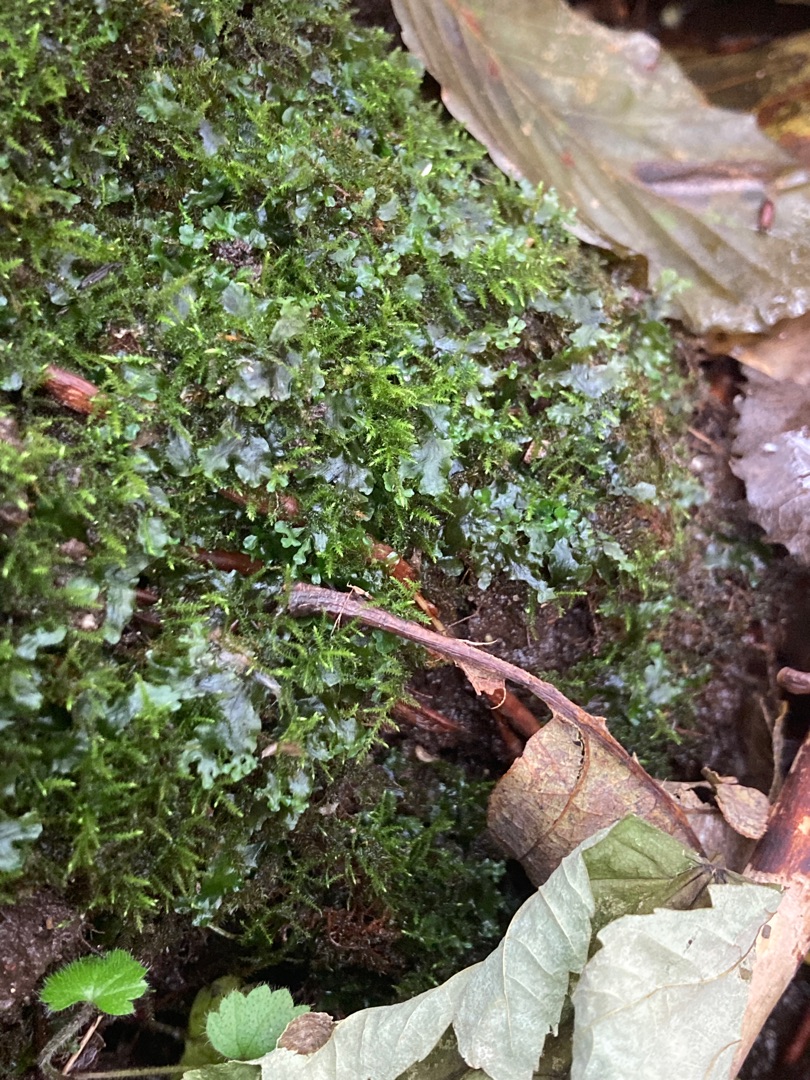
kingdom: Plantae
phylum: Marchantiophyta
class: Jungermanniopsida
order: Pelliales
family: Pelliaceae
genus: Apopellia
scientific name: Apopellia endiviifolia
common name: Fliget ribbeløv
